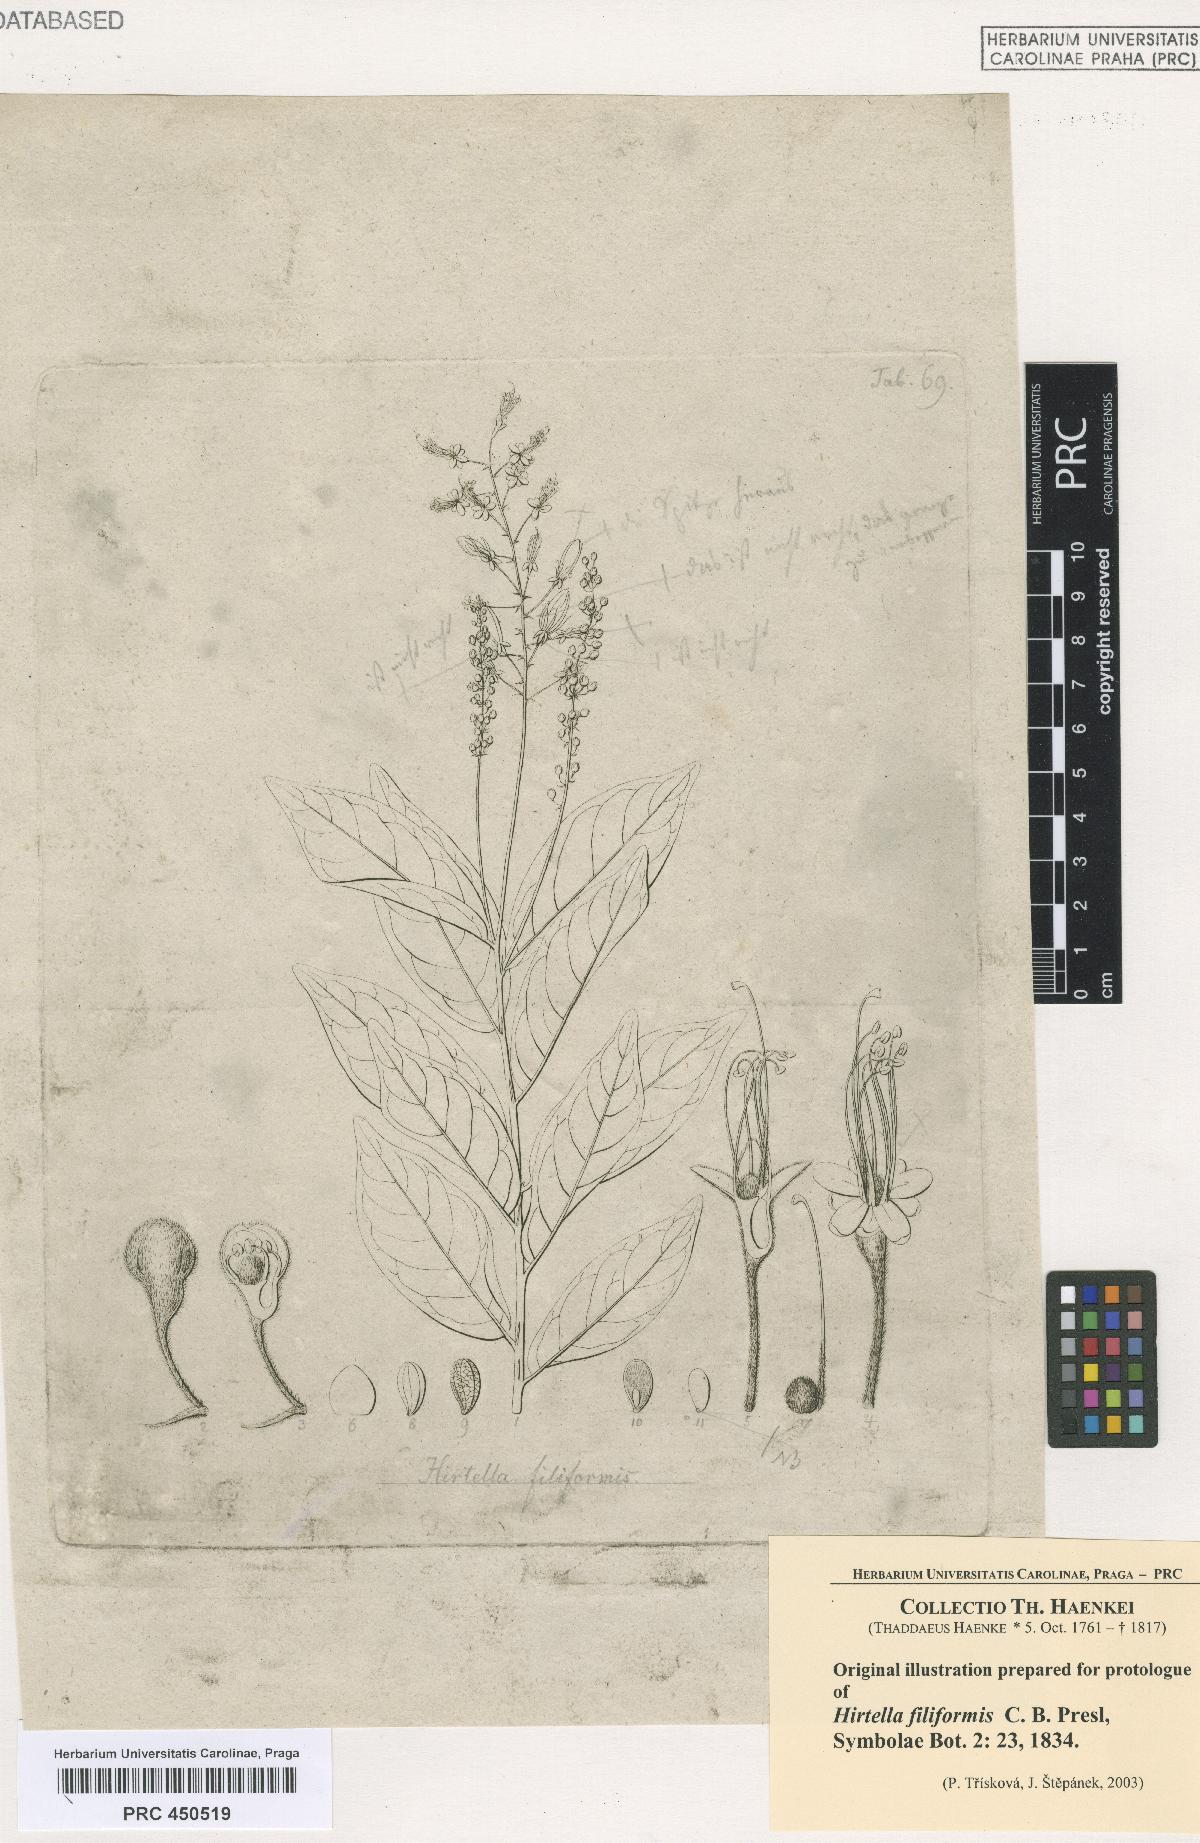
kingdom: Plantae
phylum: Tracheophyta
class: Magnoliopsida
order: Malpighiales
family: Chrysobalanaceae
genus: Hirtella
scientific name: Hirtella racemosa
